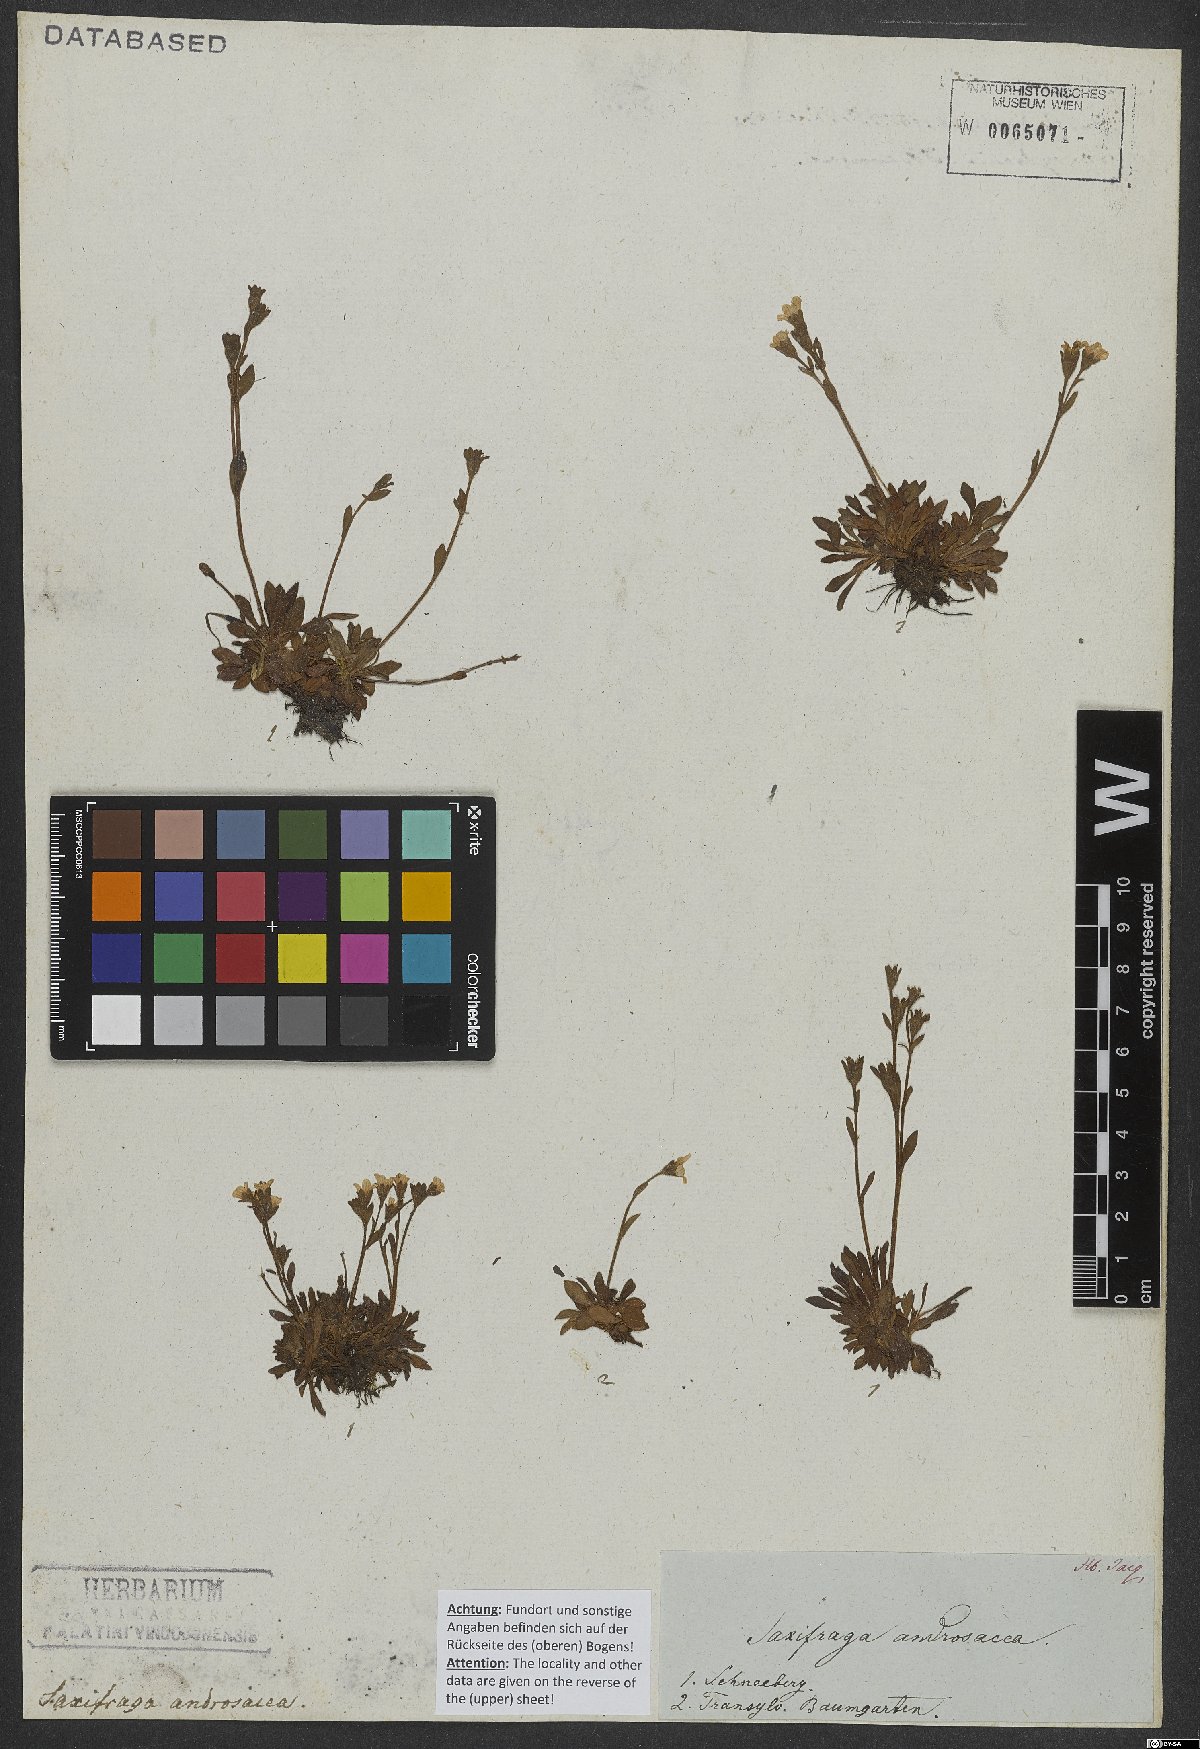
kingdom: Plantae
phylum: Tracheophyta
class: Magnoliopsida
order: Saxifragales
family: Saxifragaceae
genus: Saxifraga
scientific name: Saxifraga androsacea
